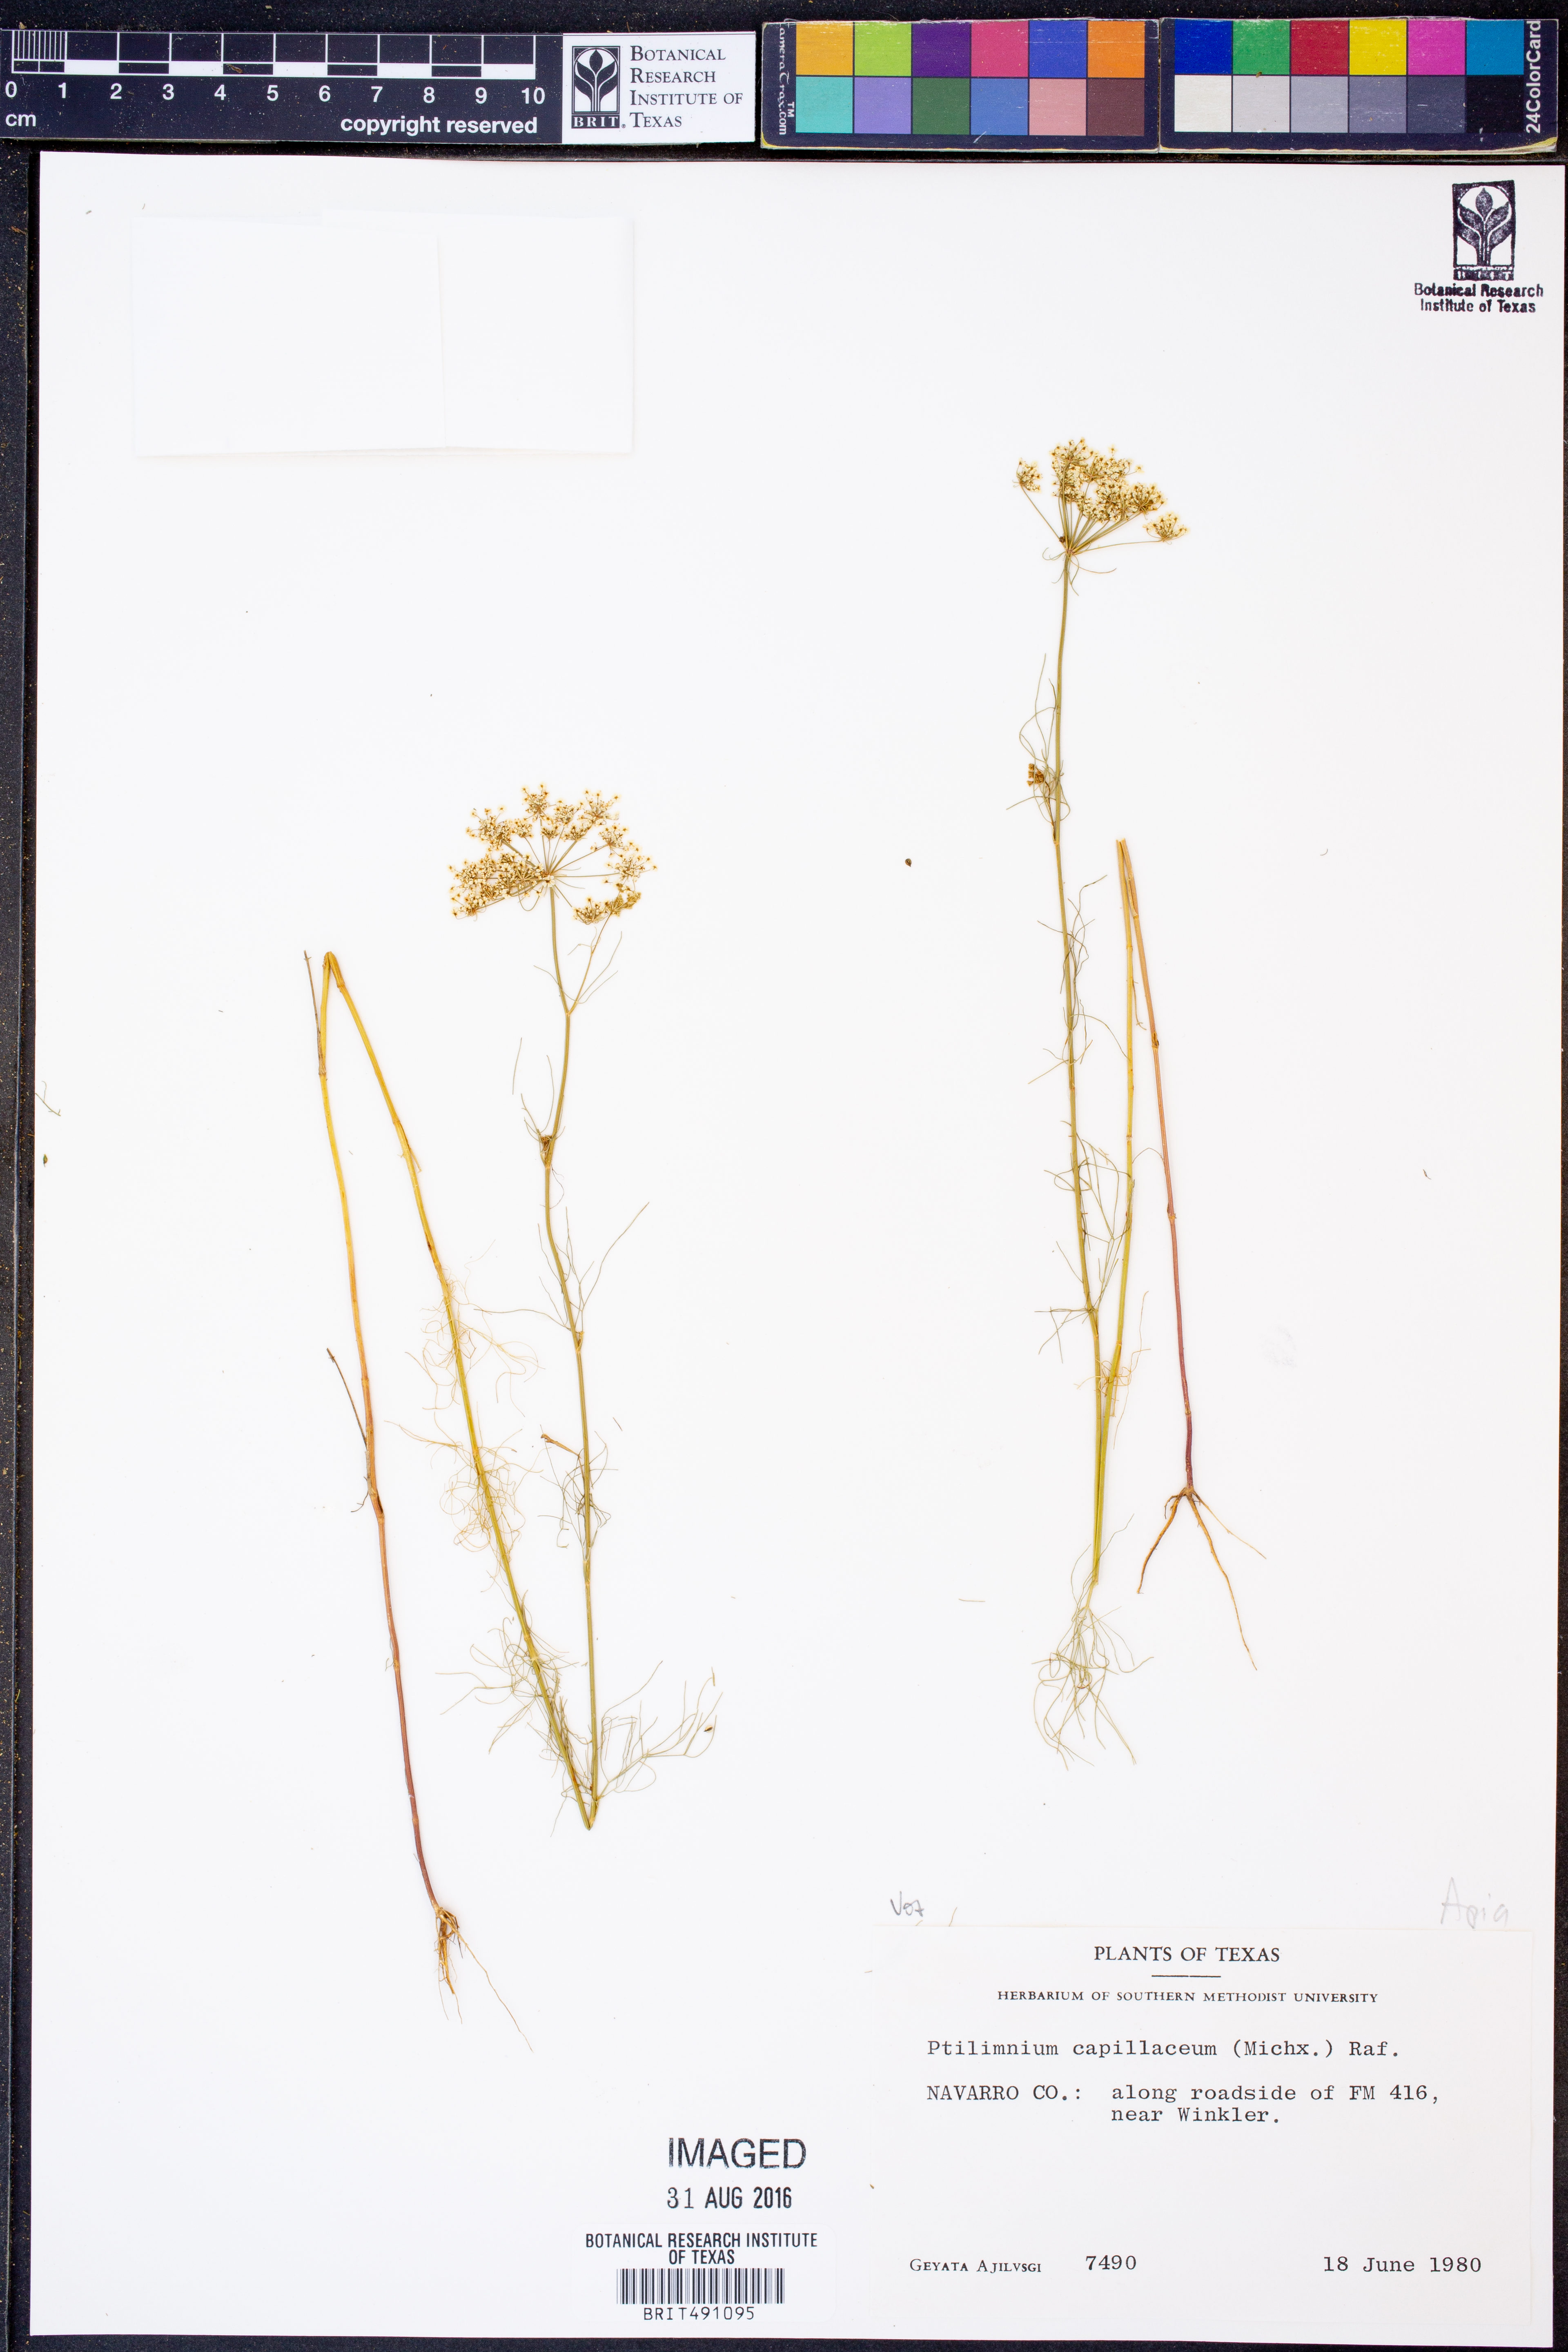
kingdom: Plantae
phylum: Tracheophyta
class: Magnoliopsida
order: Apiales
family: Apiaceae
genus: Ptilimnium
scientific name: Ptilimnium capillaceum
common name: Herbwilliam
